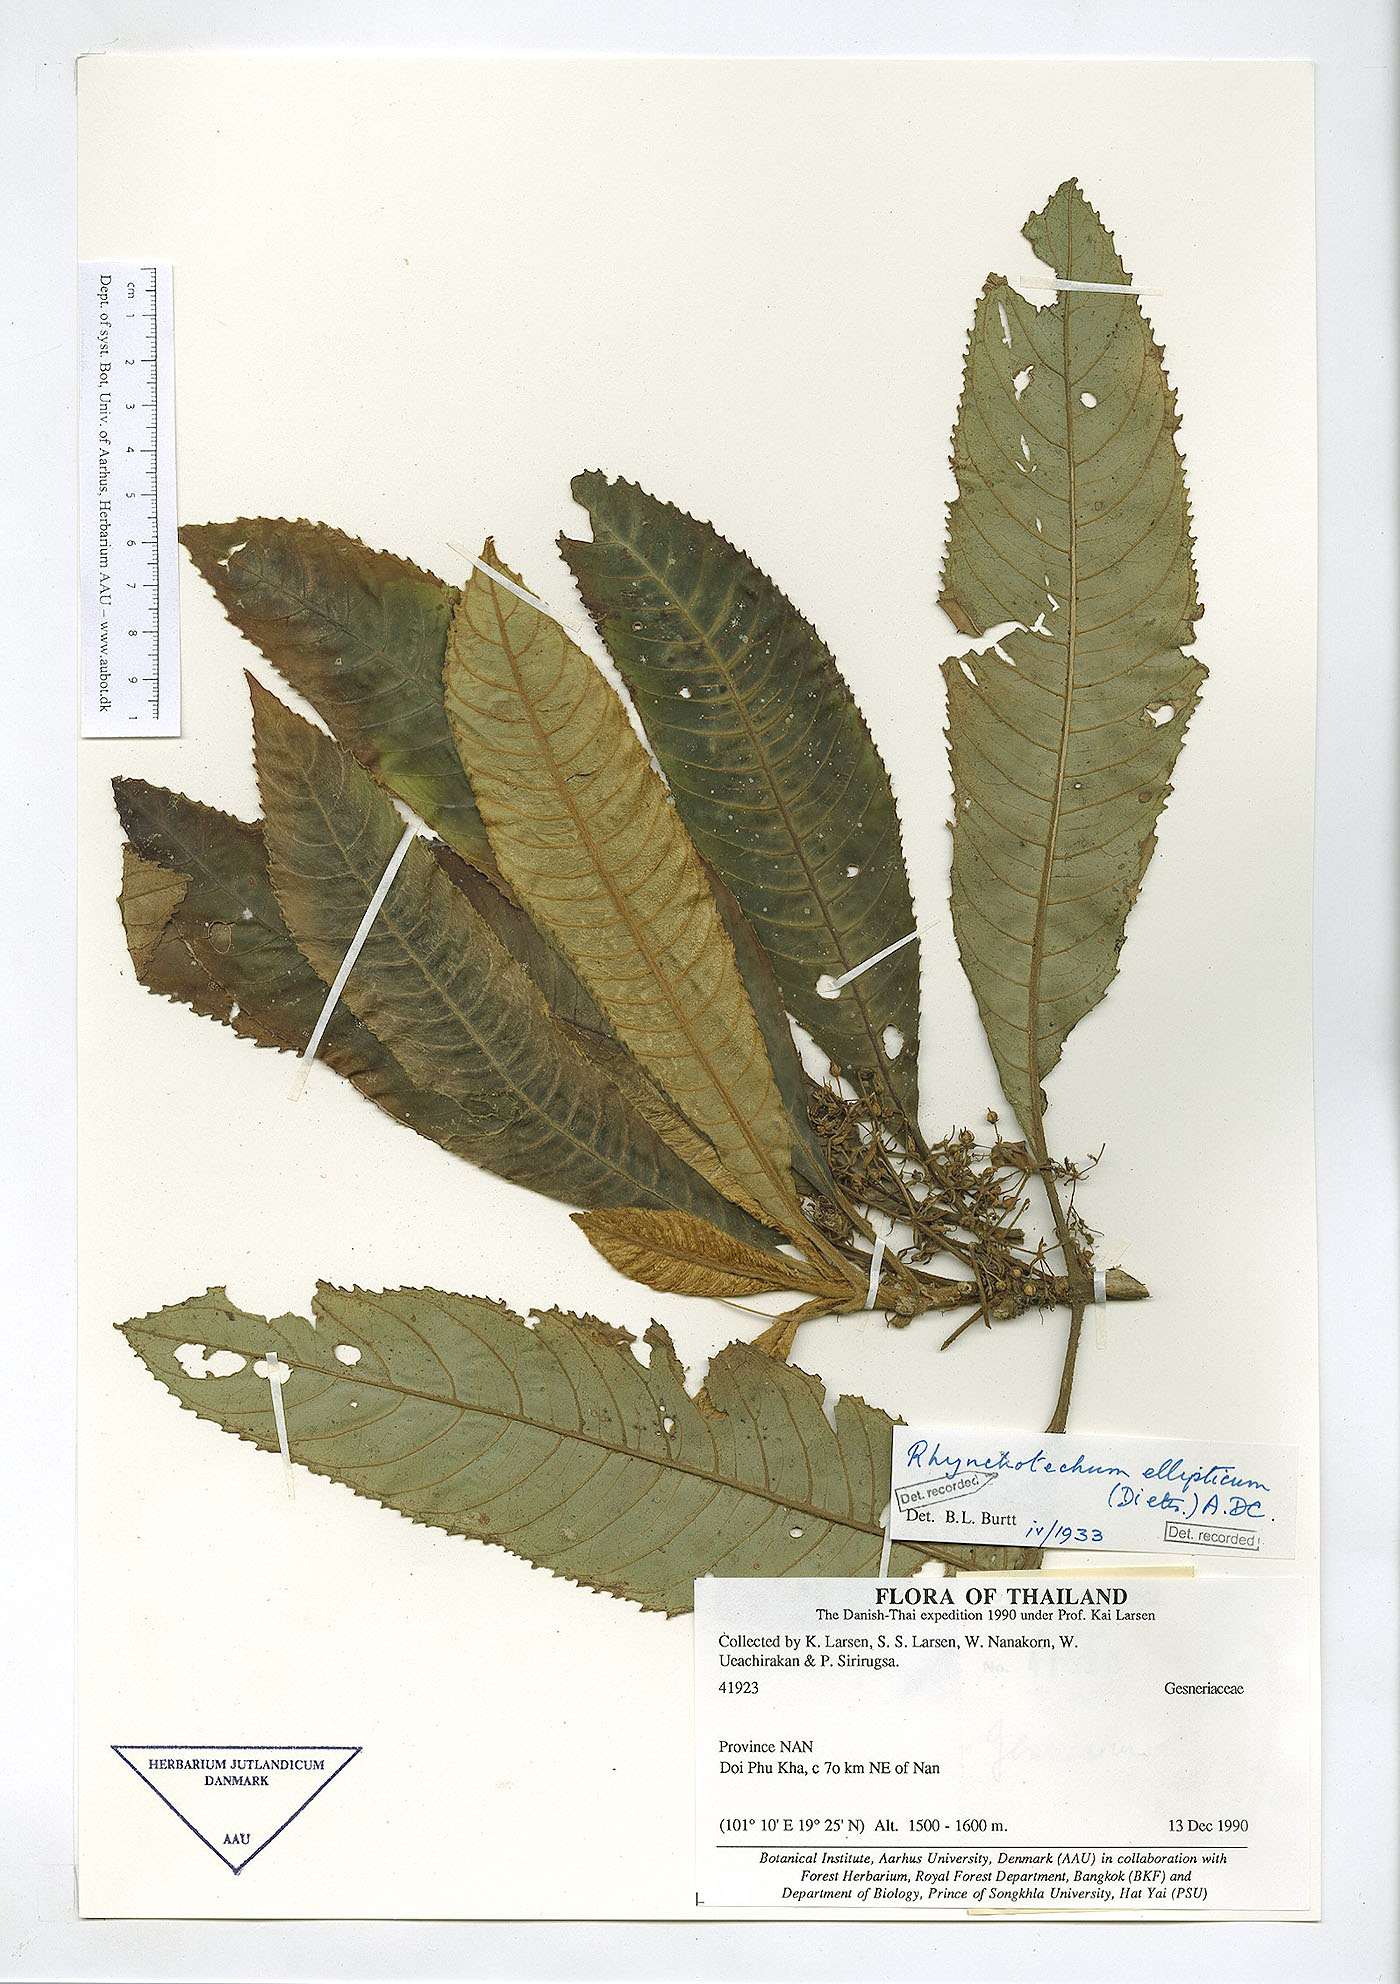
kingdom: Plantae
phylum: Tracheophyta
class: Magnoliopsida
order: Lamiales
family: Gesneriaceae
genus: Rhynchotechum
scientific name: Rhynchotechum obovatum
